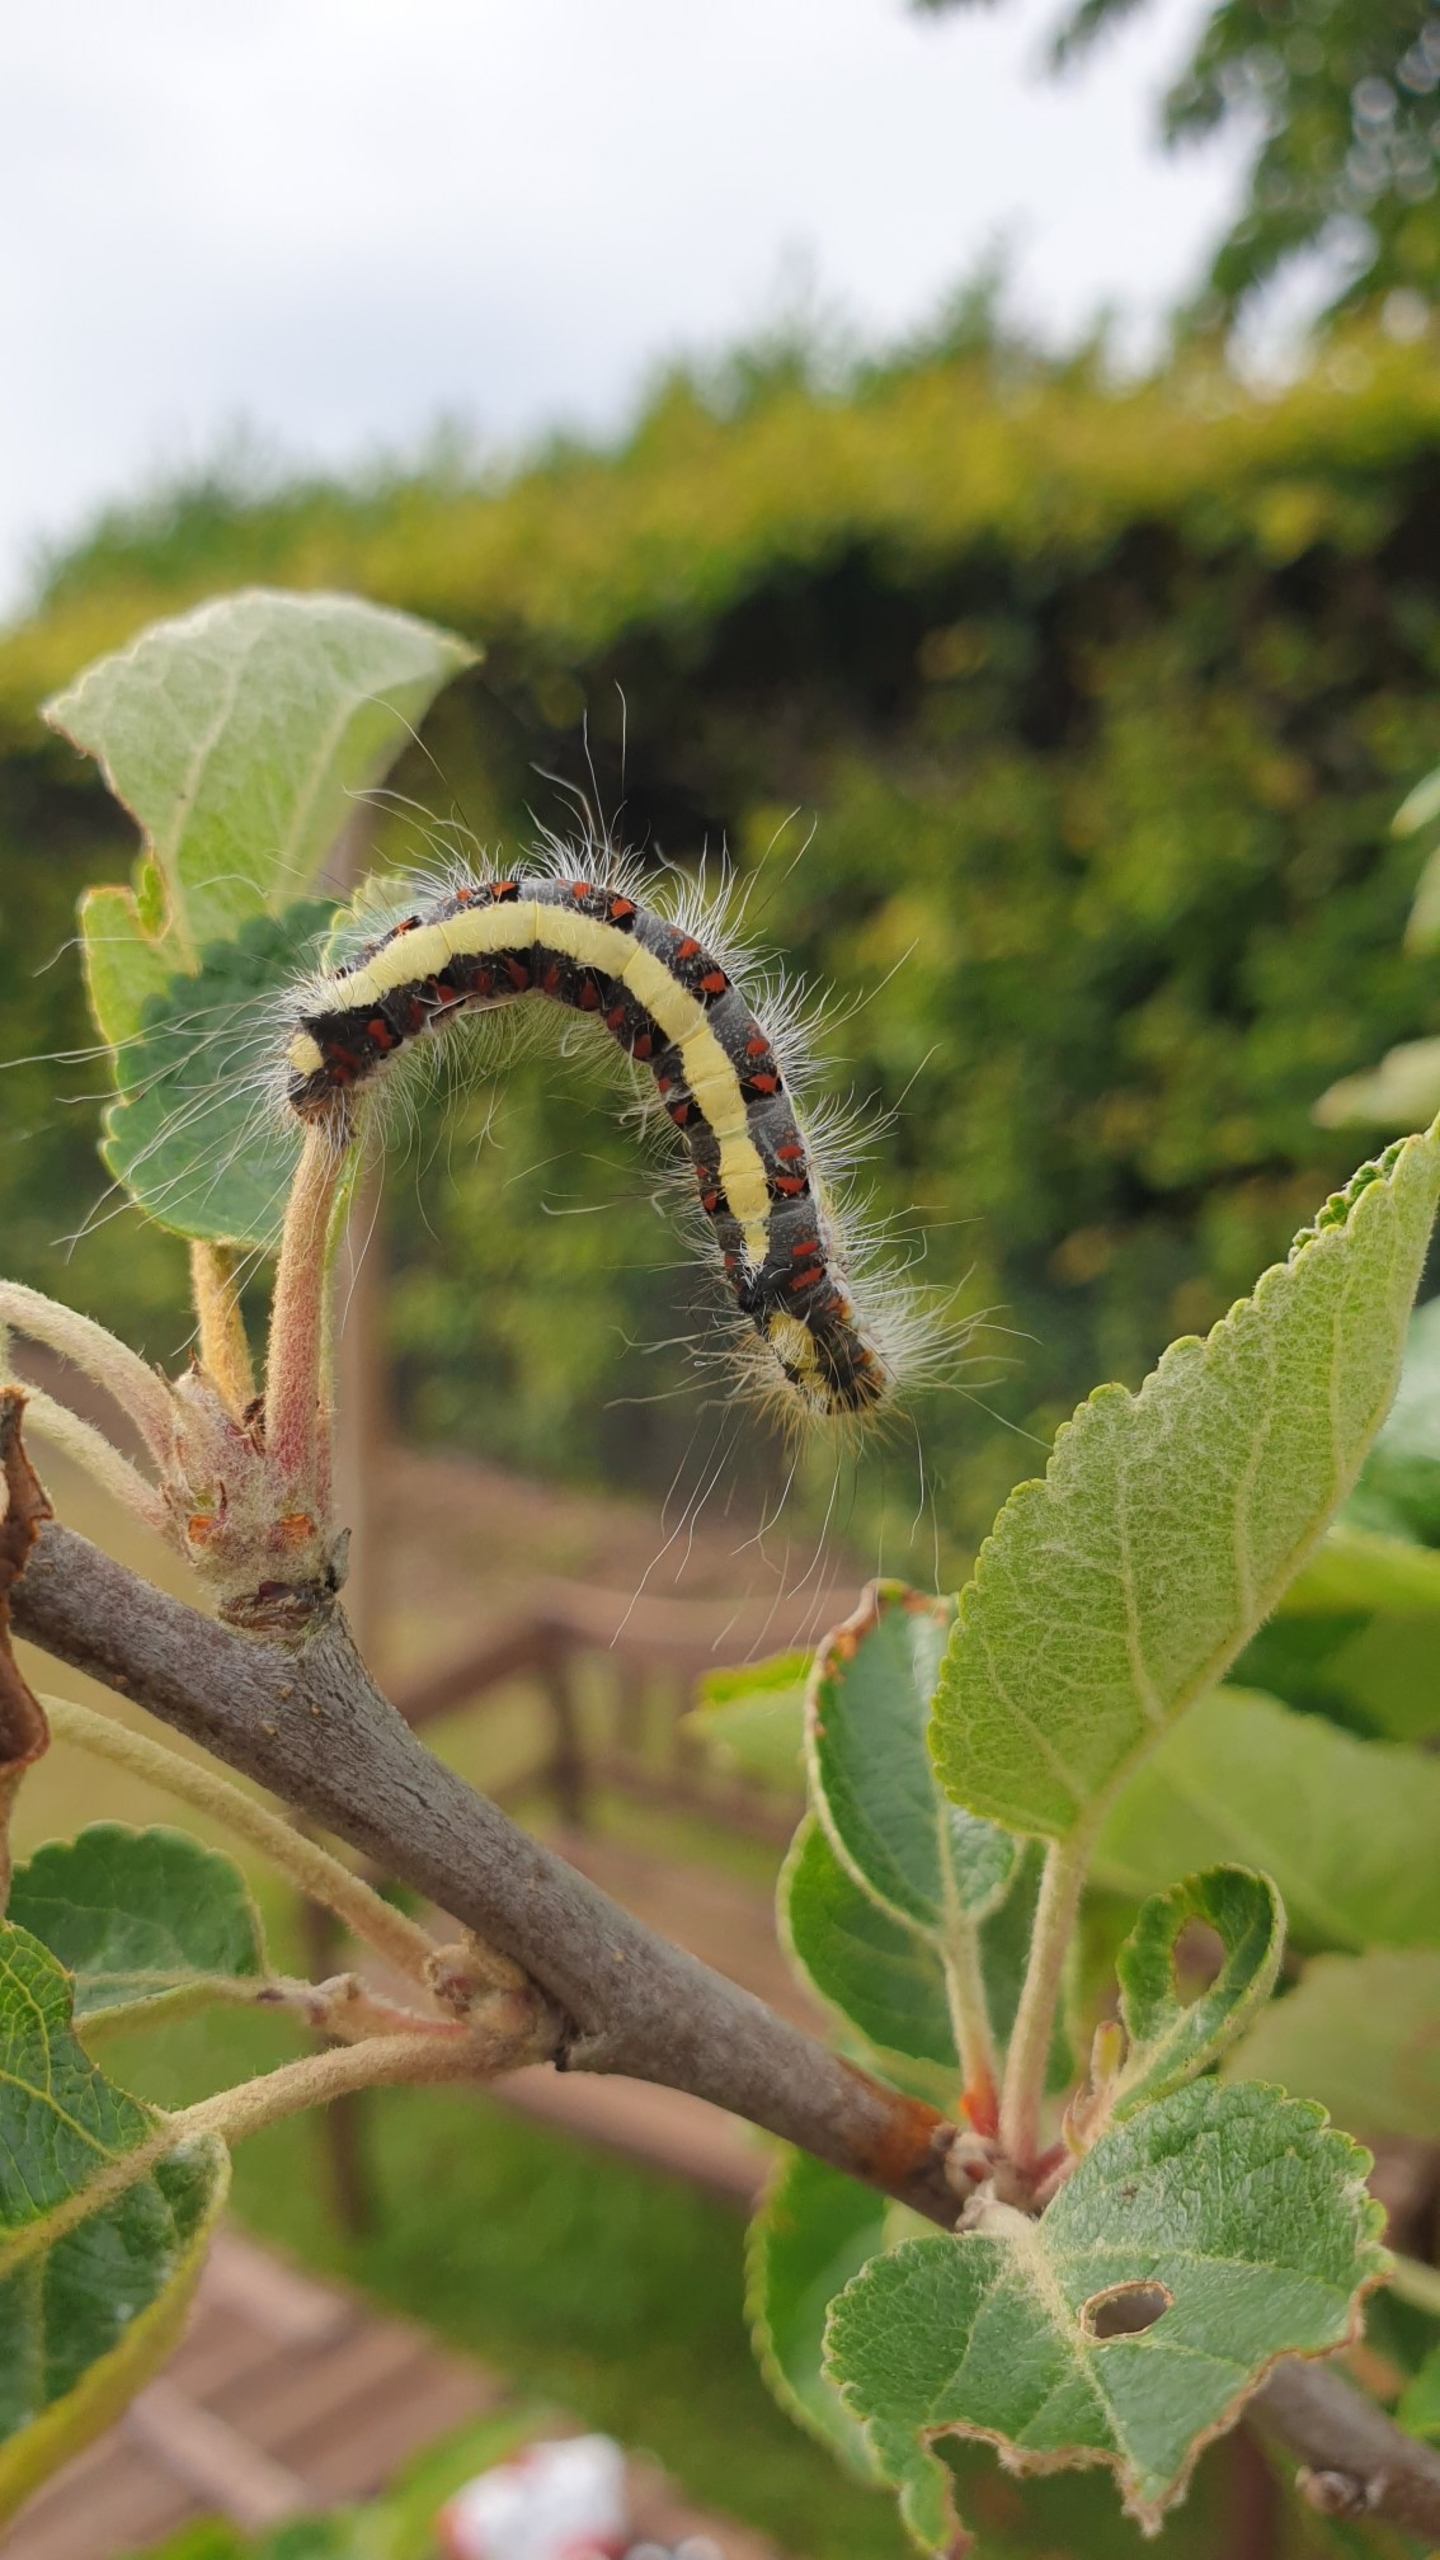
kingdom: Animalia
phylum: Arthropoda
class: Insecta
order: Lepidoptera
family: Noctuidae
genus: Acronicta
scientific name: Acronicta psi
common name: Psi-ugle
